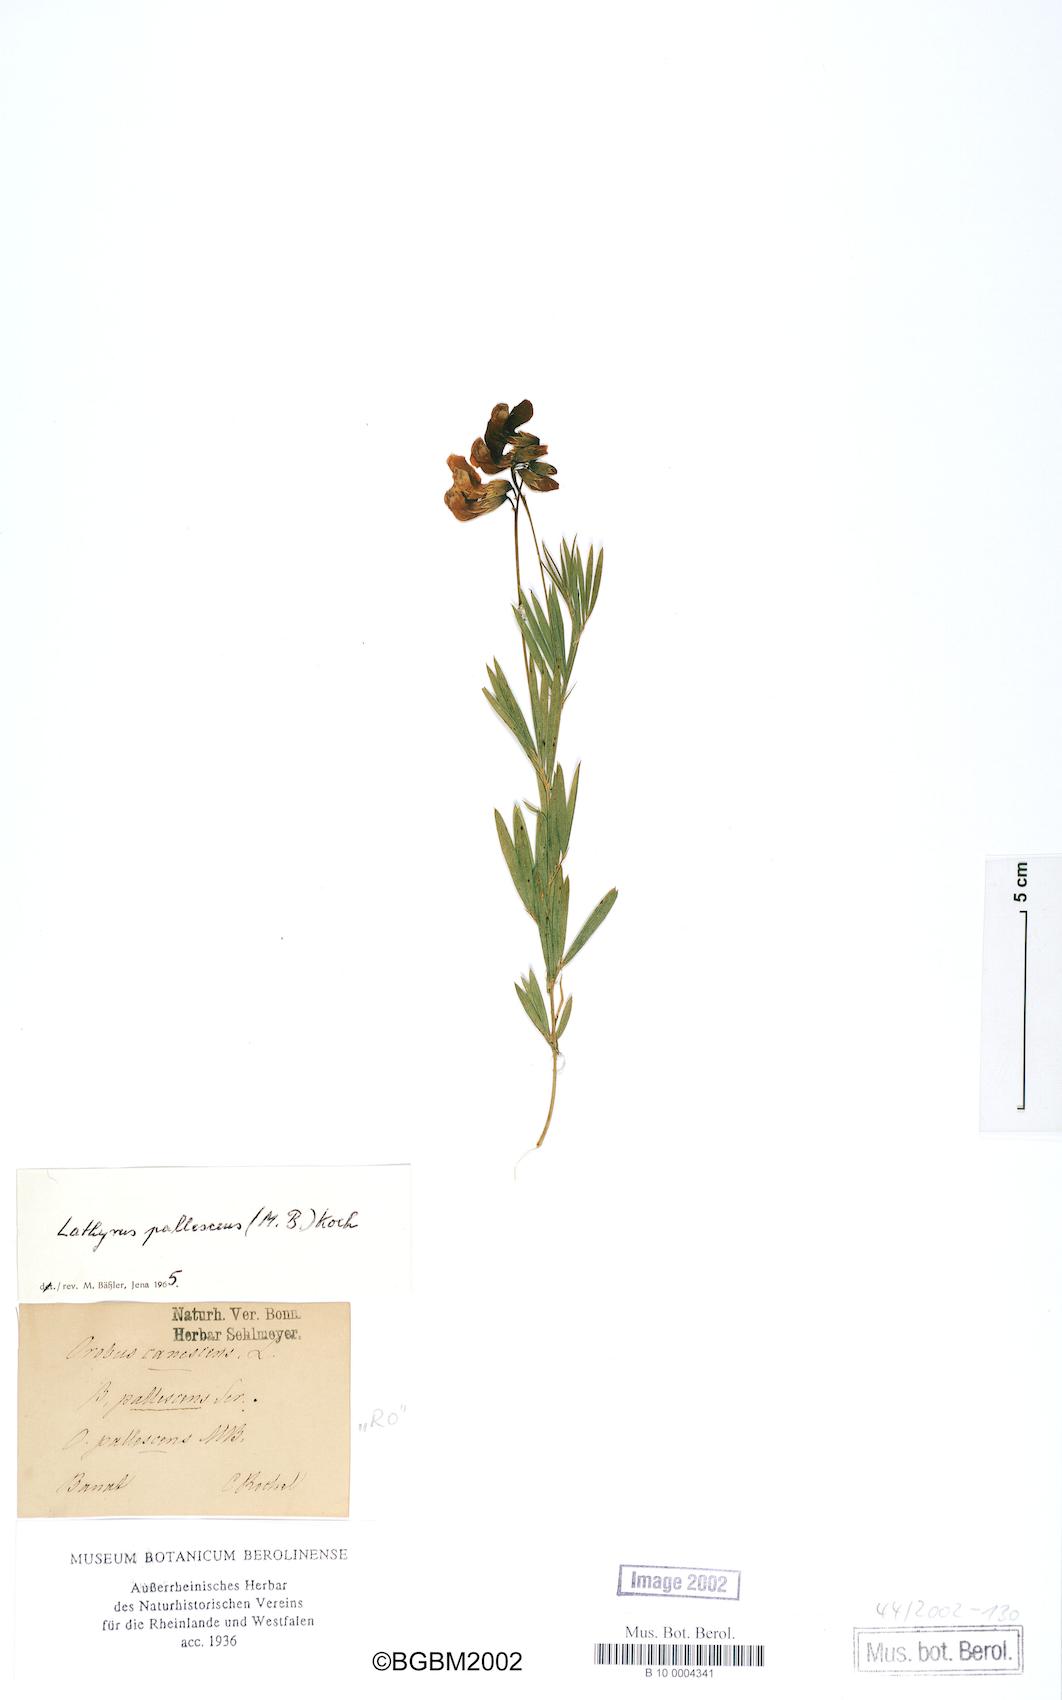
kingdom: Plantae
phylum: Tracheophyta
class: Magnoliopsida
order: Fabales
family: Fabaceae
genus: Lathyrus
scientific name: Lathyrus pallescens
